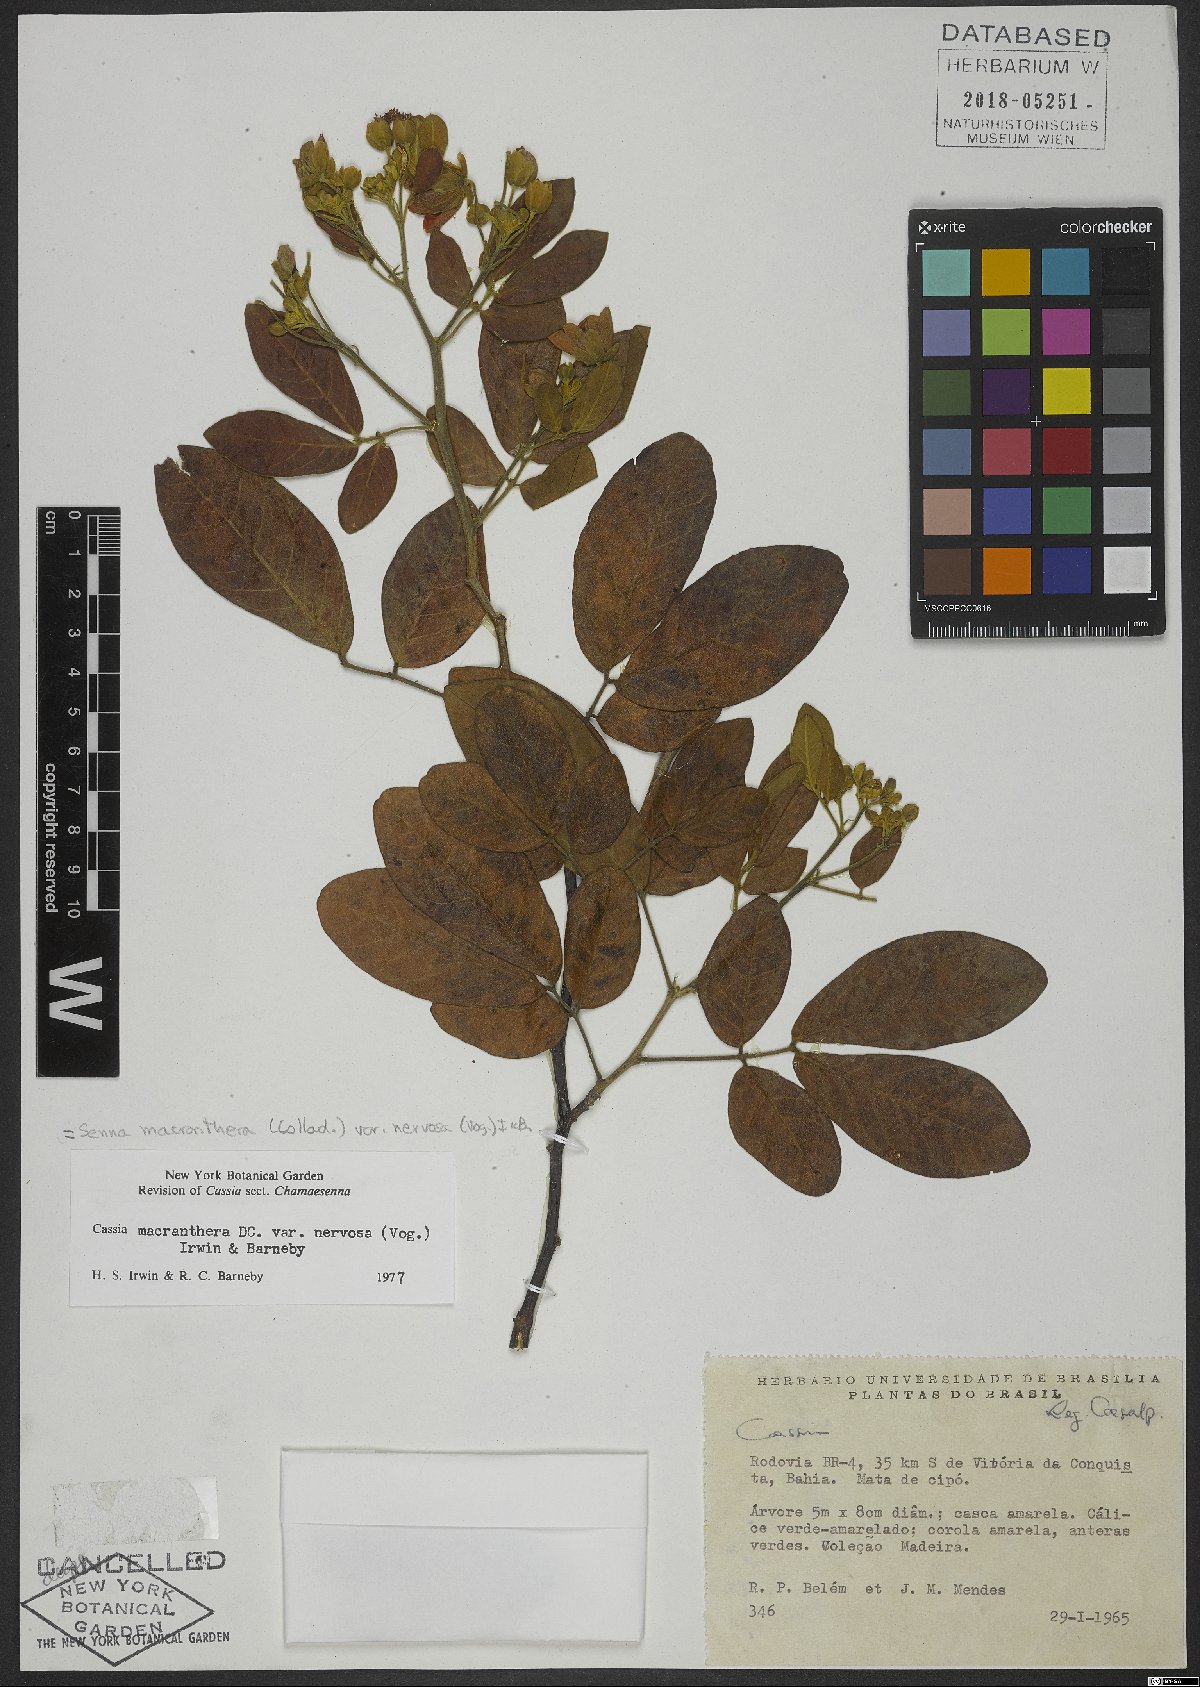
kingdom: Plantae
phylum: Tracheophyta
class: Magnoliopsida
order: Fabales
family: Fabaceae
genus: Senna
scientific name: Senna macranthera
